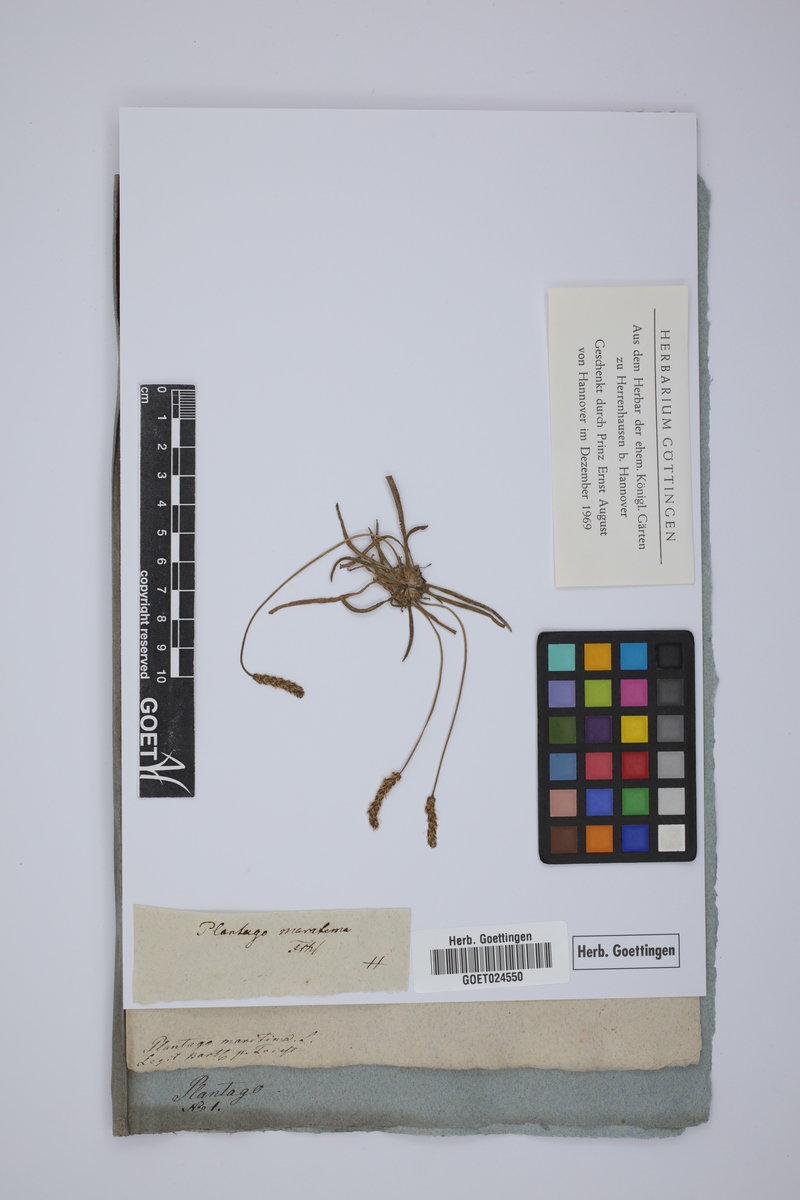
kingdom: Plantae
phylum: Tracheophyta
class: Magnoliopsida
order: Lamiales
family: Plantaginaceae
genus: Plantago
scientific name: Plantago maritima
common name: Sea plantain
